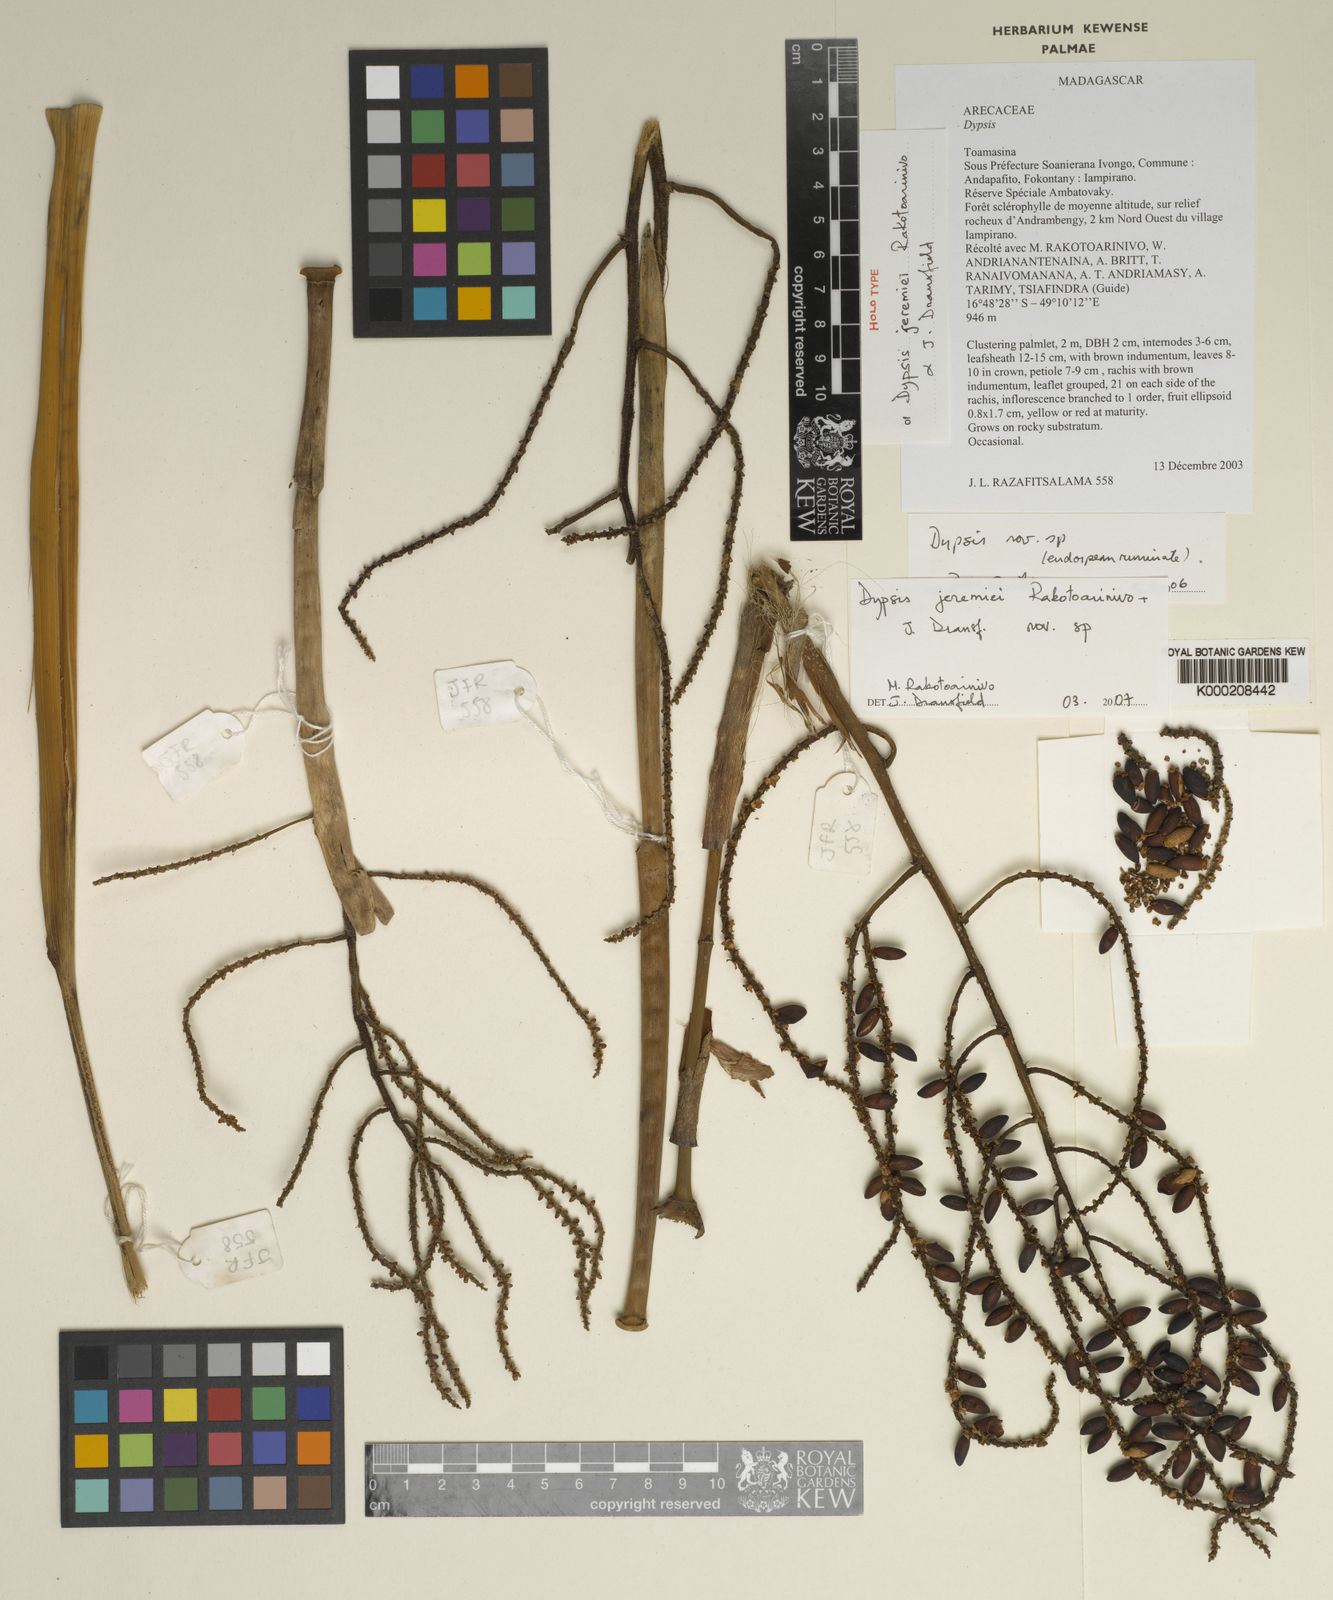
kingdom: Plantae
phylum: Tracheophyta
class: Liliopsida
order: Arecales
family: Arecaceae
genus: Dypsis
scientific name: Dypsis jeremiei
